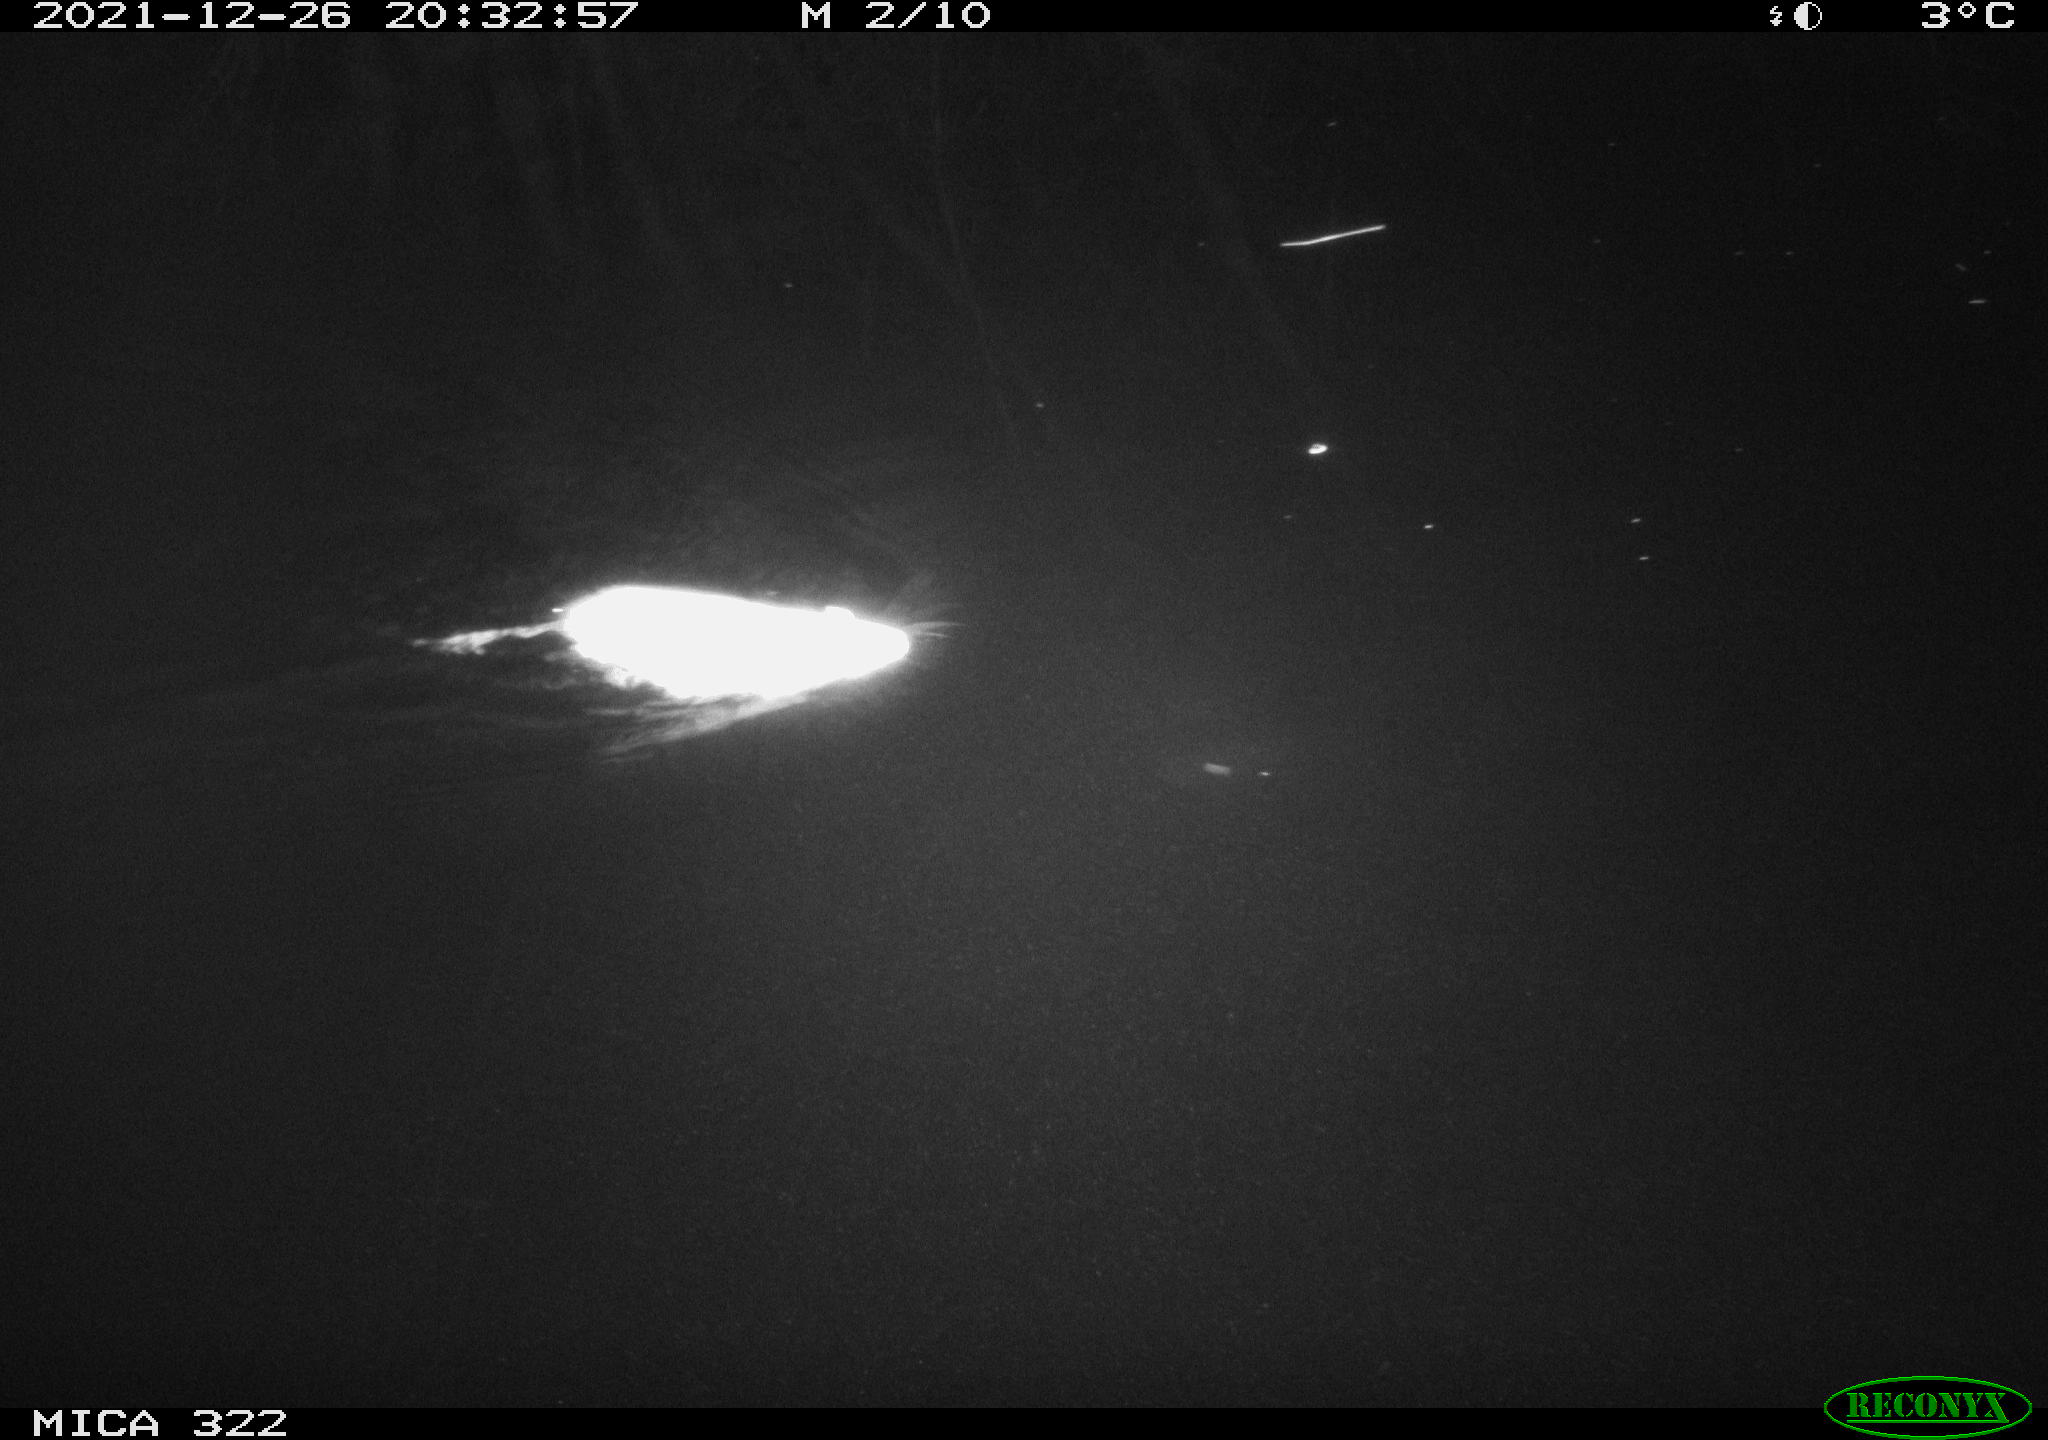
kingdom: Animalia
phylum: Chordata
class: Mammalia
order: Rodentia
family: Muridae
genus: Rattus
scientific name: Rattus norvegicus
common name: Brown rat
